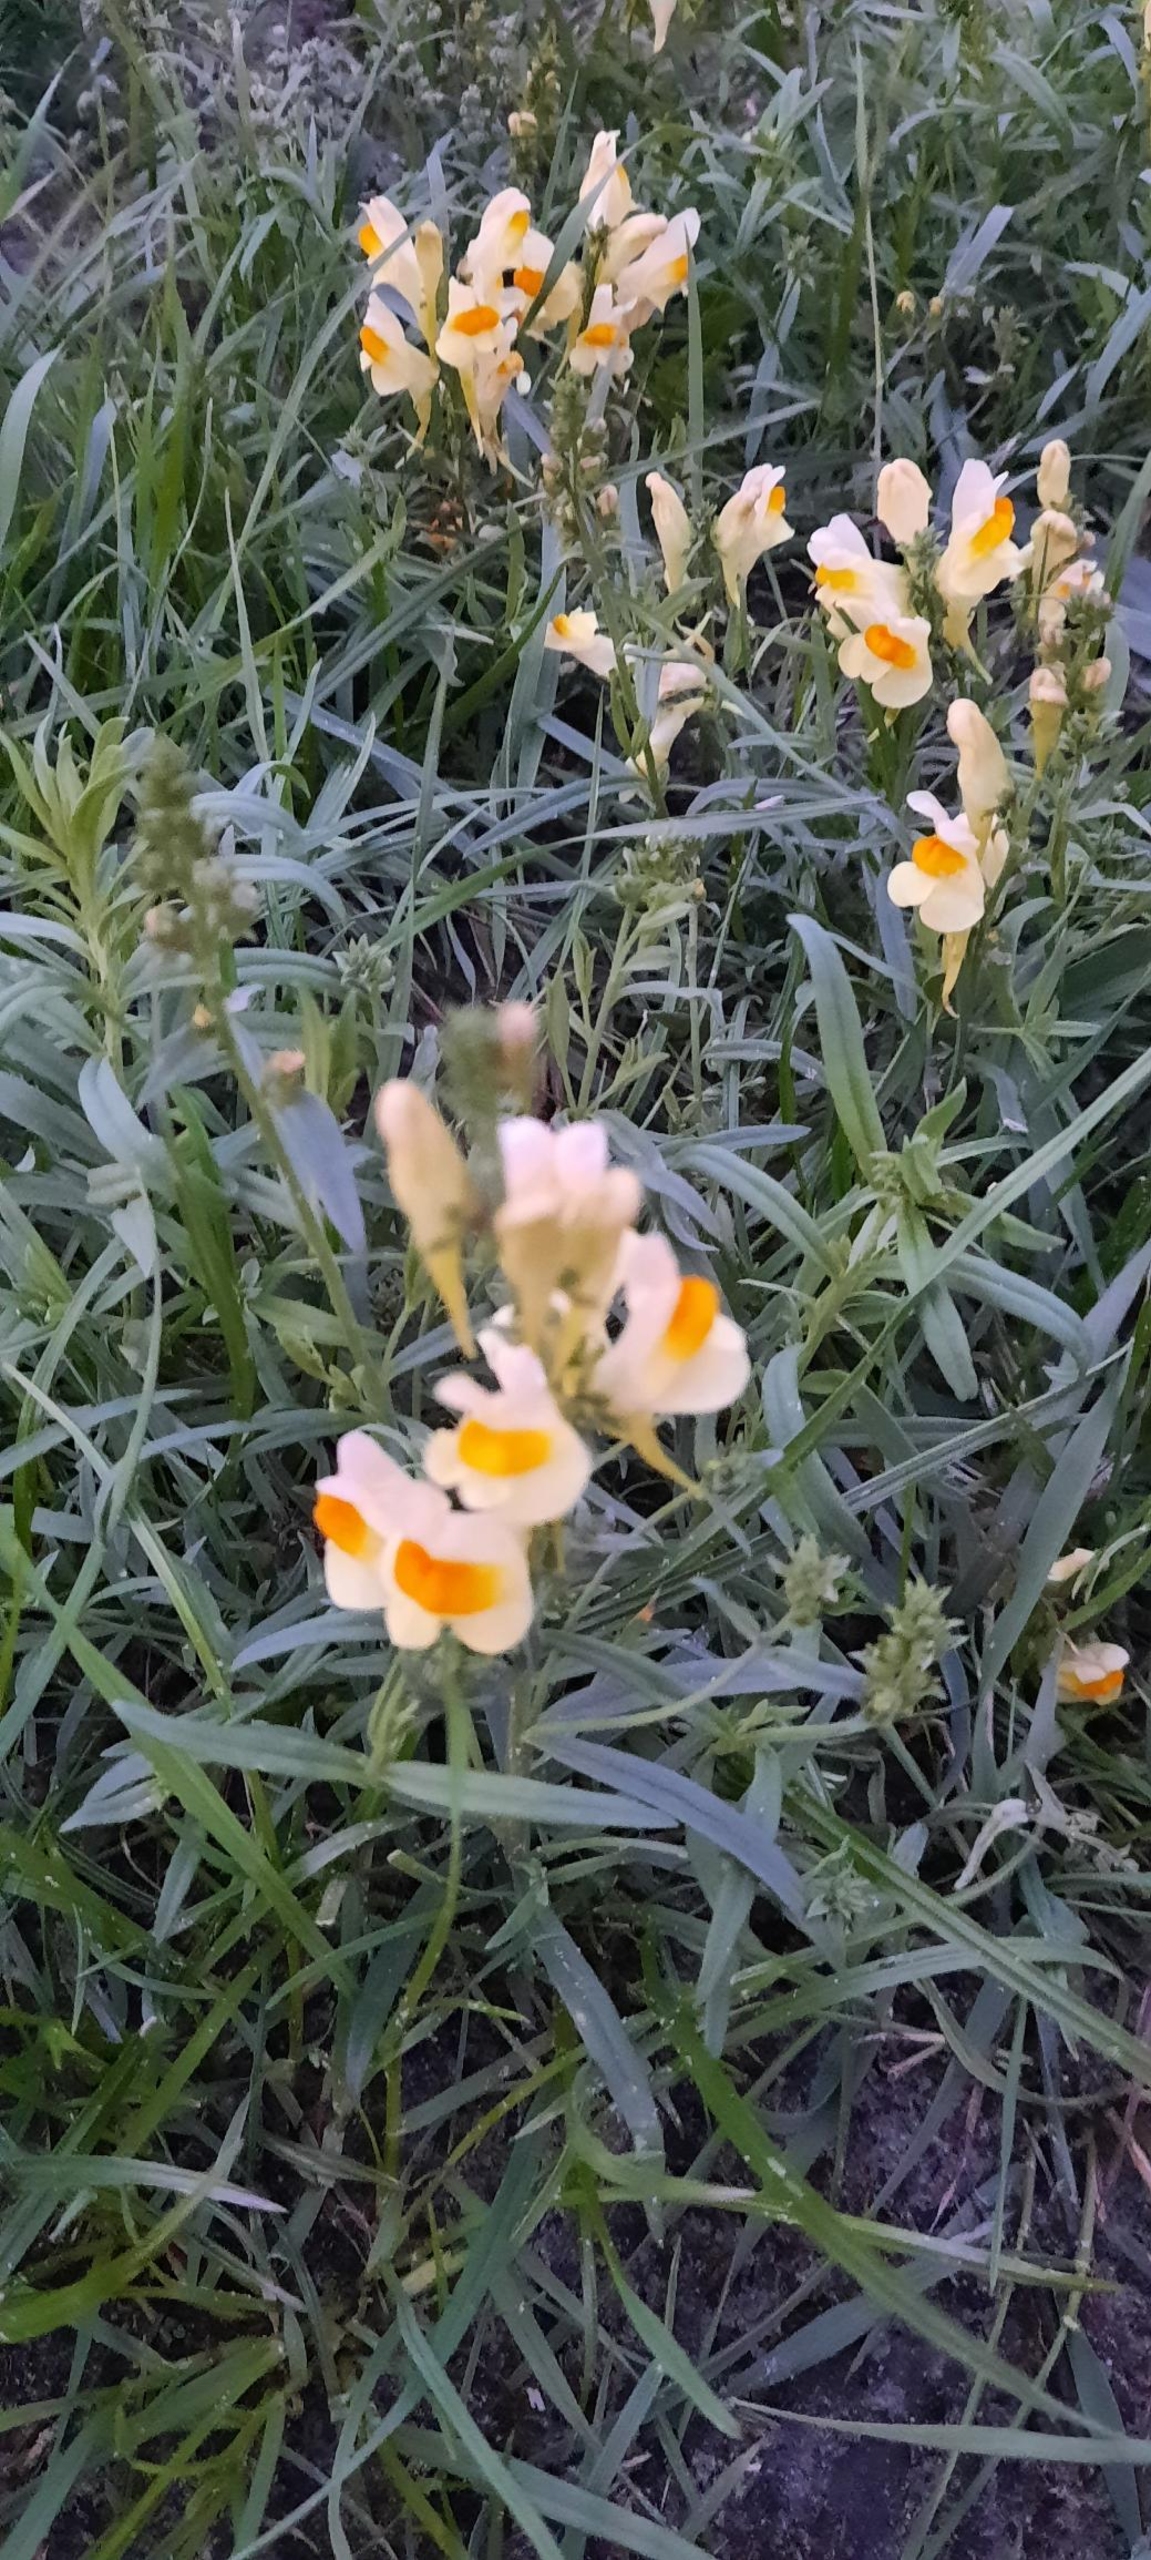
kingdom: Plantae
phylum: Tracheophyta
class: Magnoliopsida
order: Lamiales
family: Plantaginaceae
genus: Linaria
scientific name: Linaria vulgaris
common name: Almindelig torskemund
